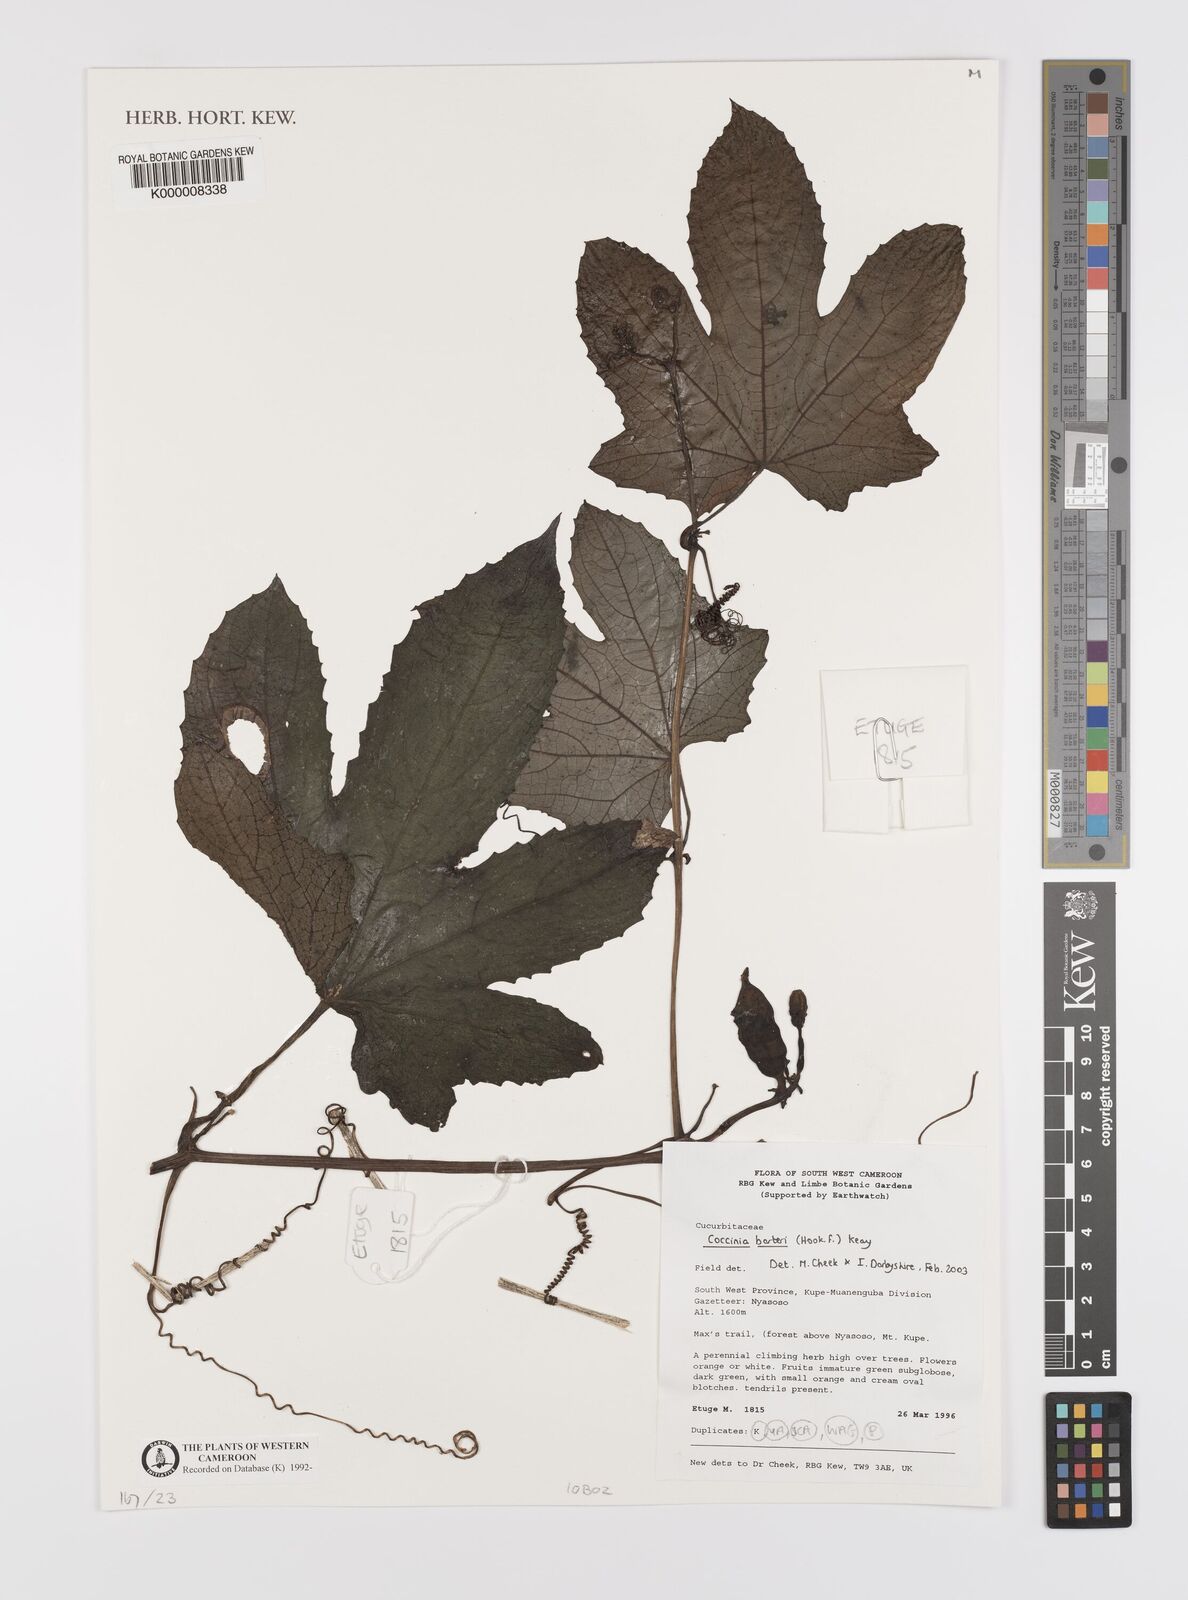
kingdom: Plantae
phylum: Tracheophyta
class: Magnoliopsida
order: Cucurbitales
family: Cucurbitaceae
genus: Coccinia
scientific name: Coccinia barteri
